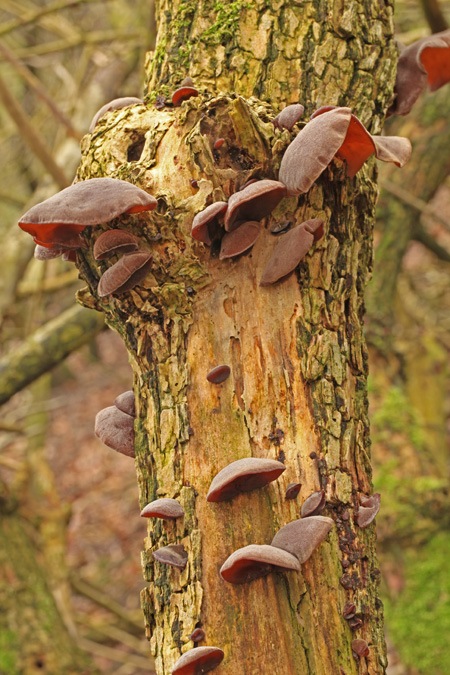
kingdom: Fungi
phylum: Basidiomycota
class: Agaricomycetes
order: Auriculariales
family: Auriculariaceae
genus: Auricularia
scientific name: Auricularia auricula-judae
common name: almindelig judasøre
